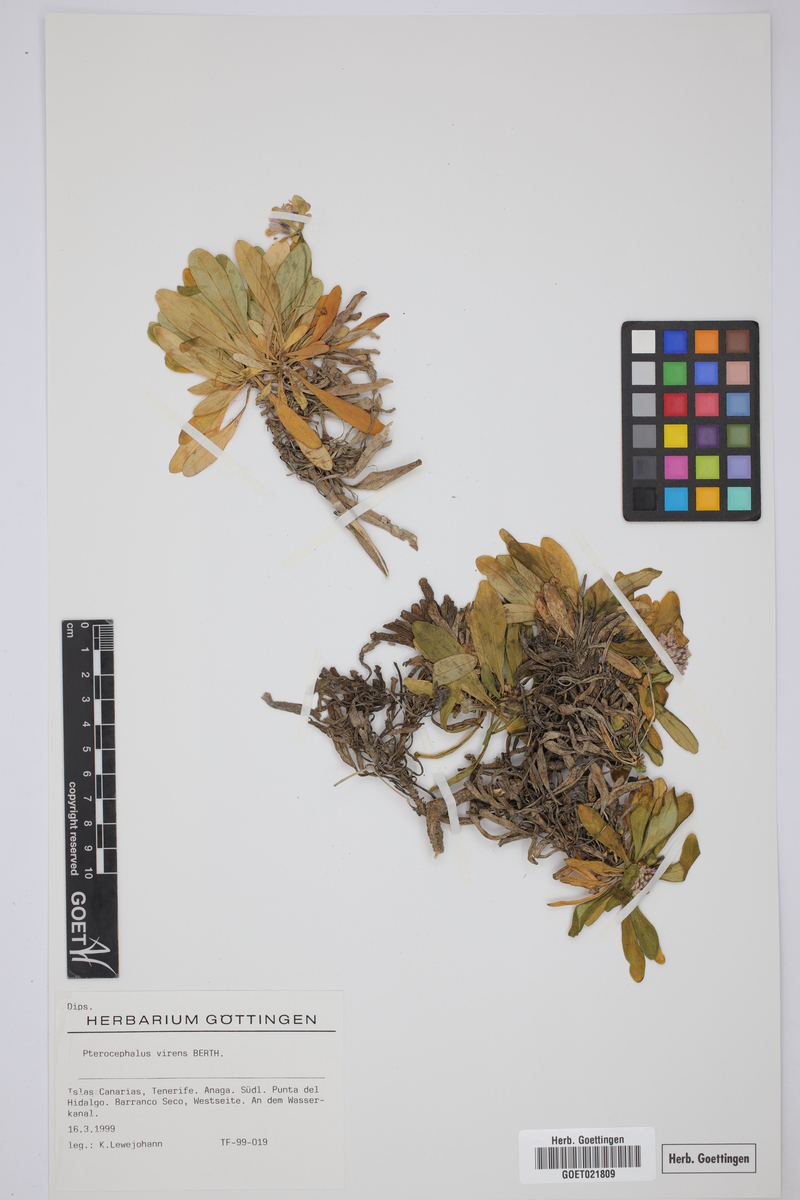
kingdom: Plantae
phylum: Tracheophyta
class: Magnoliopsida
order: Dipsacales
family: Caprifoliaceae
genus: Pterocephalus
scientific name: Pterocephalus virens
